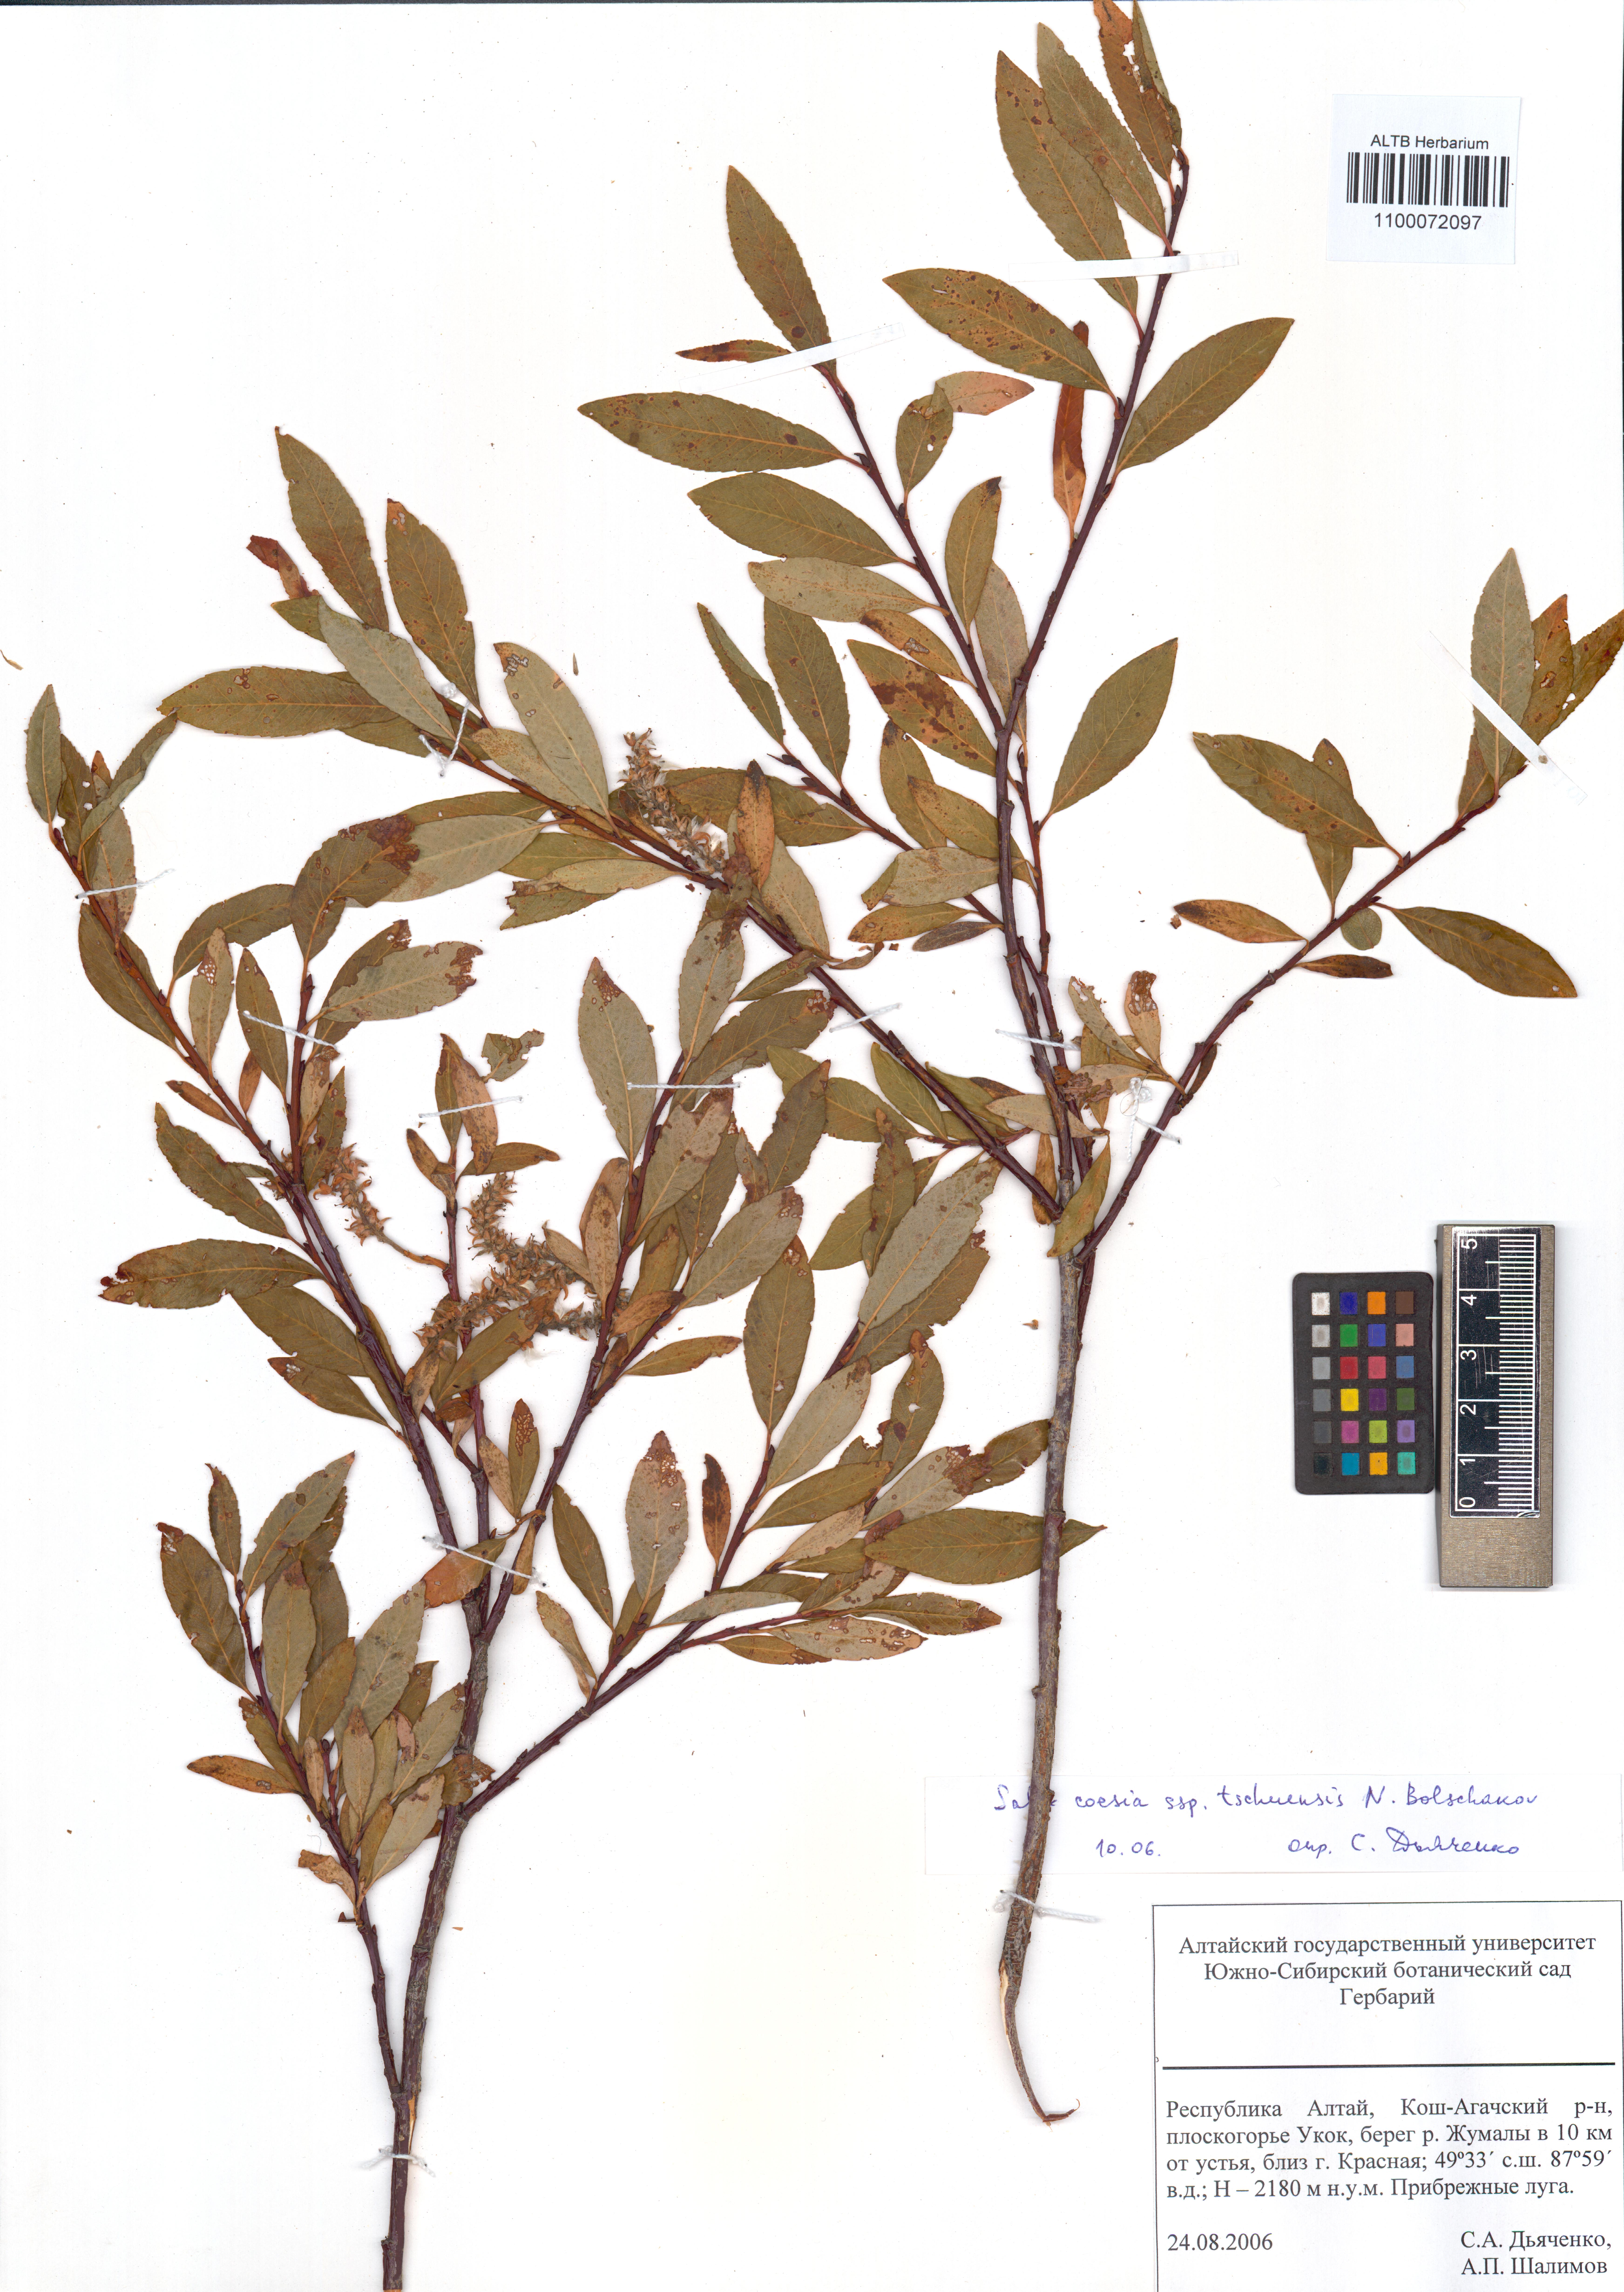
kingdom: Plantae
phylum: Tracheophyta
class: Magnoliopsida
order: Malpighiales
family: Salicaceae
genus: Salix
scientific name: Salix caesia
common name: Blue willow
